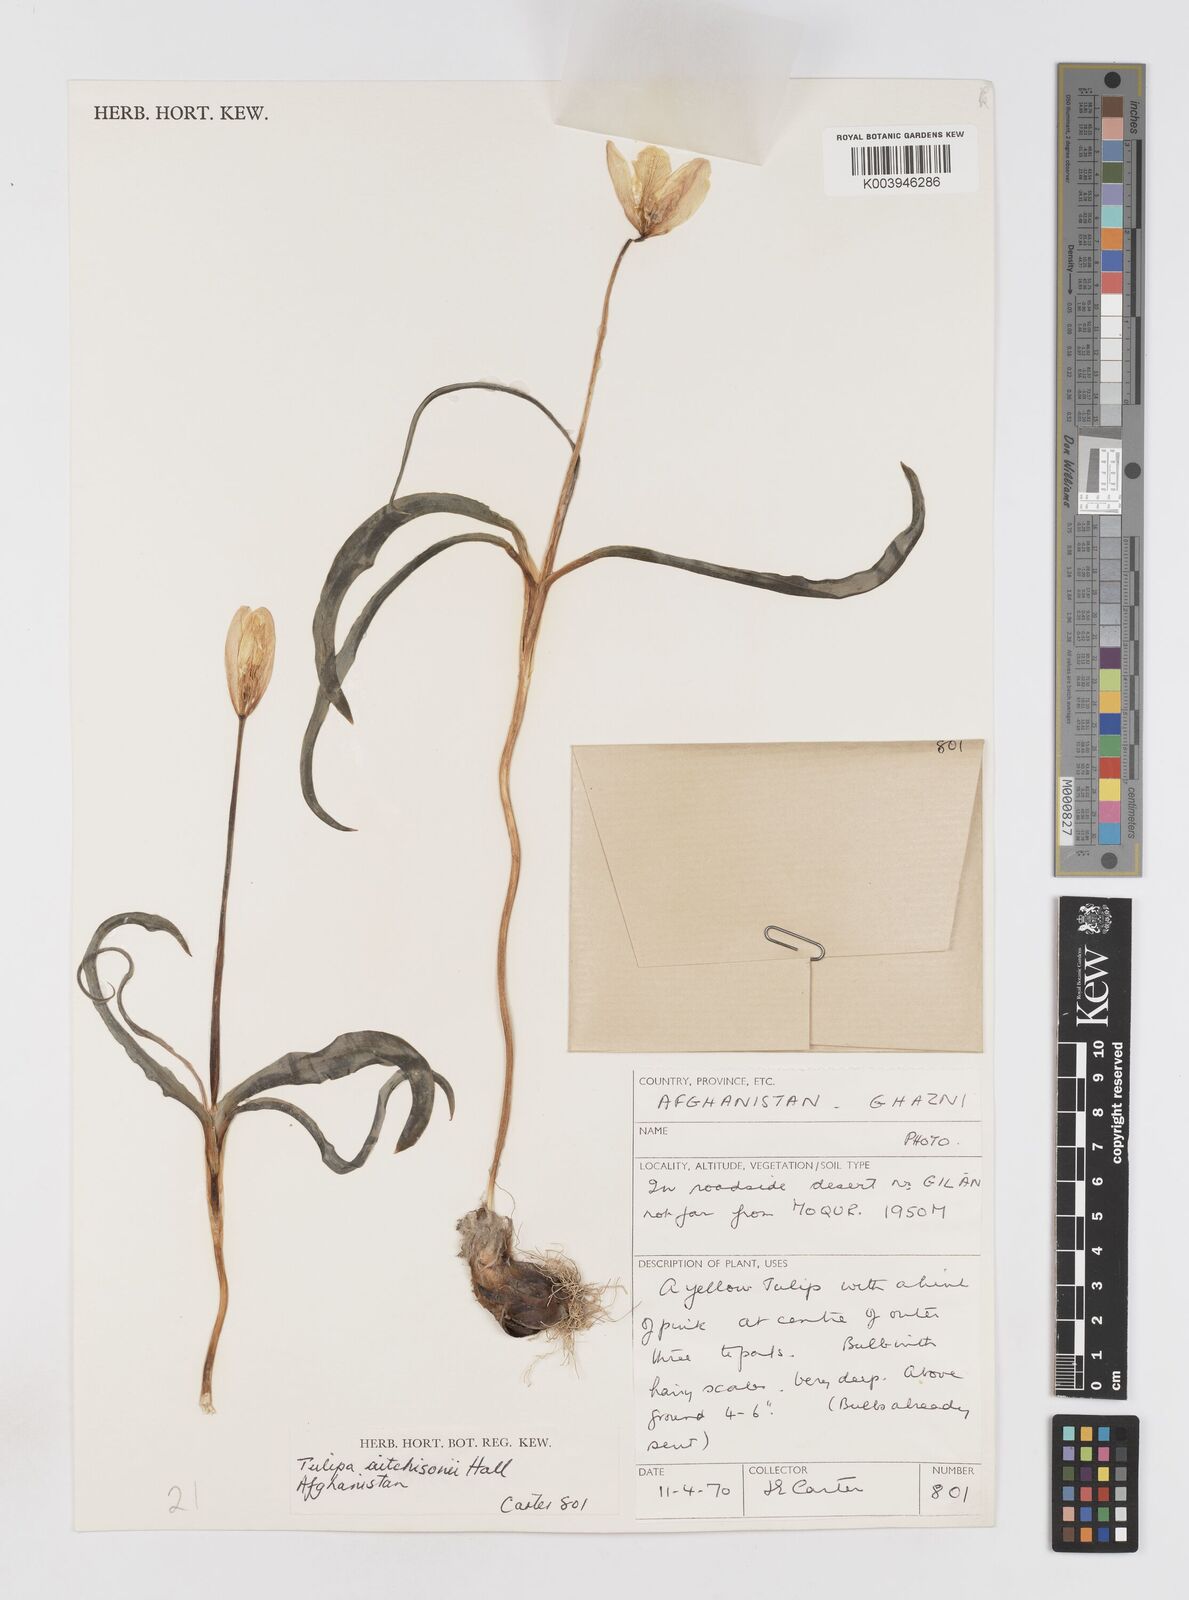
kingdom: Plantae
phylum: Tracheophyta
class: Liliopsida
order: Liliales
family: Liliaceae
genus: Tulipa
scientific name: Tulipa clusiana
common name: Lady tulip
